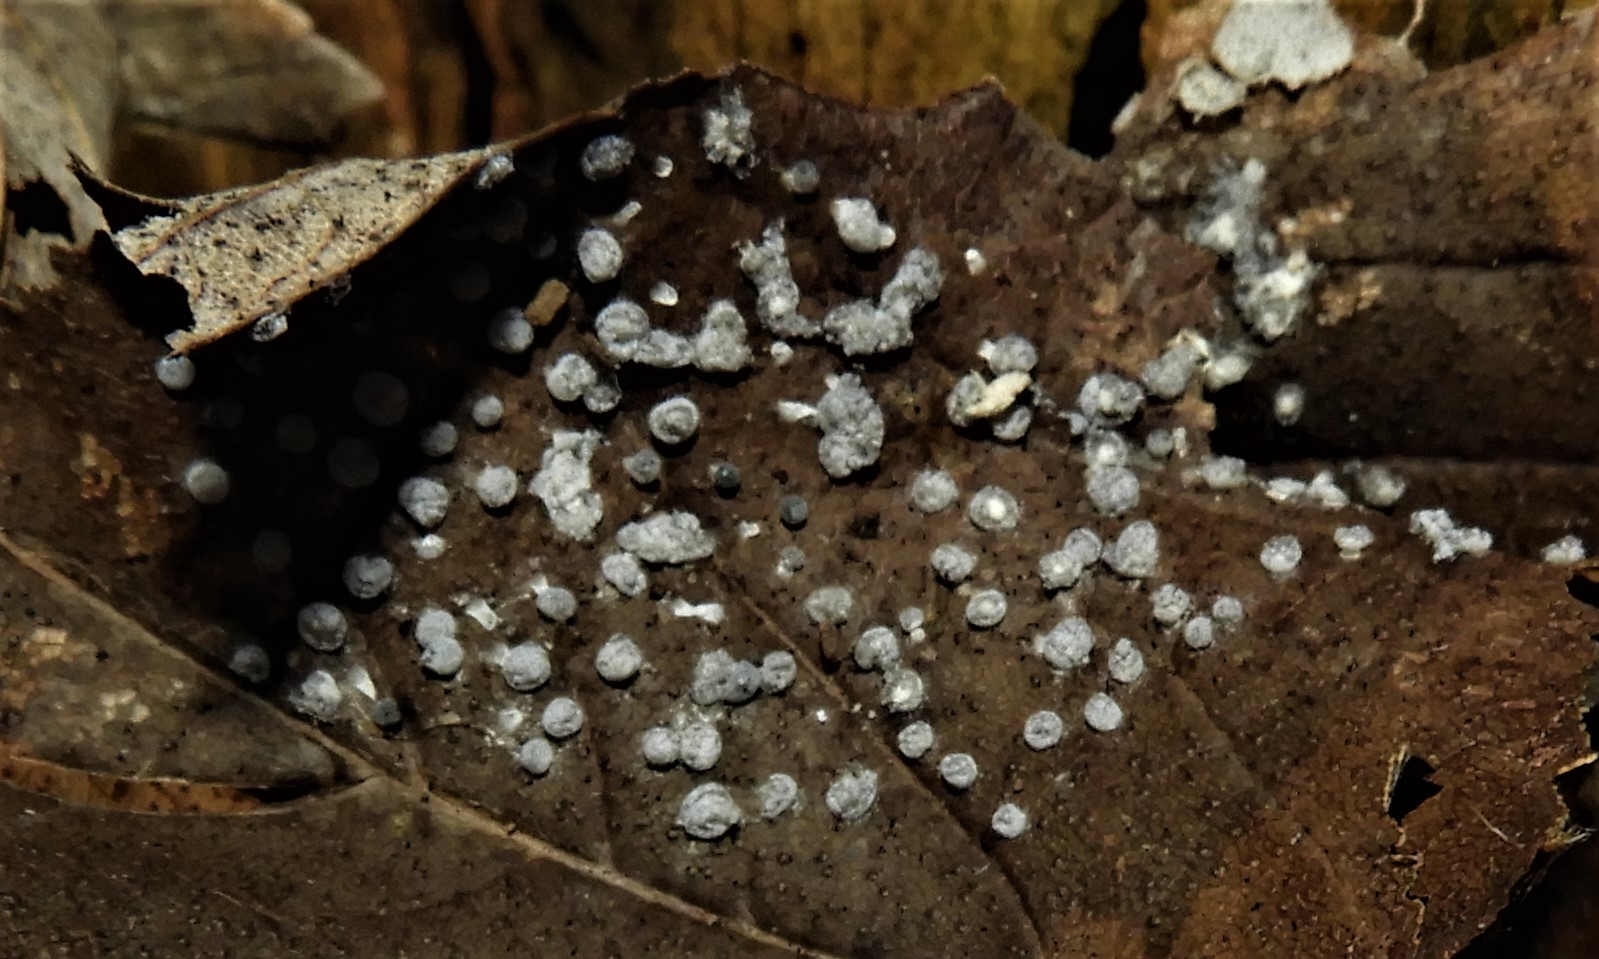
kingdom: Protozoa
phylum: Mycetozoa
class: Myxomycetes
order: Physarales
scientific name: Physarales
